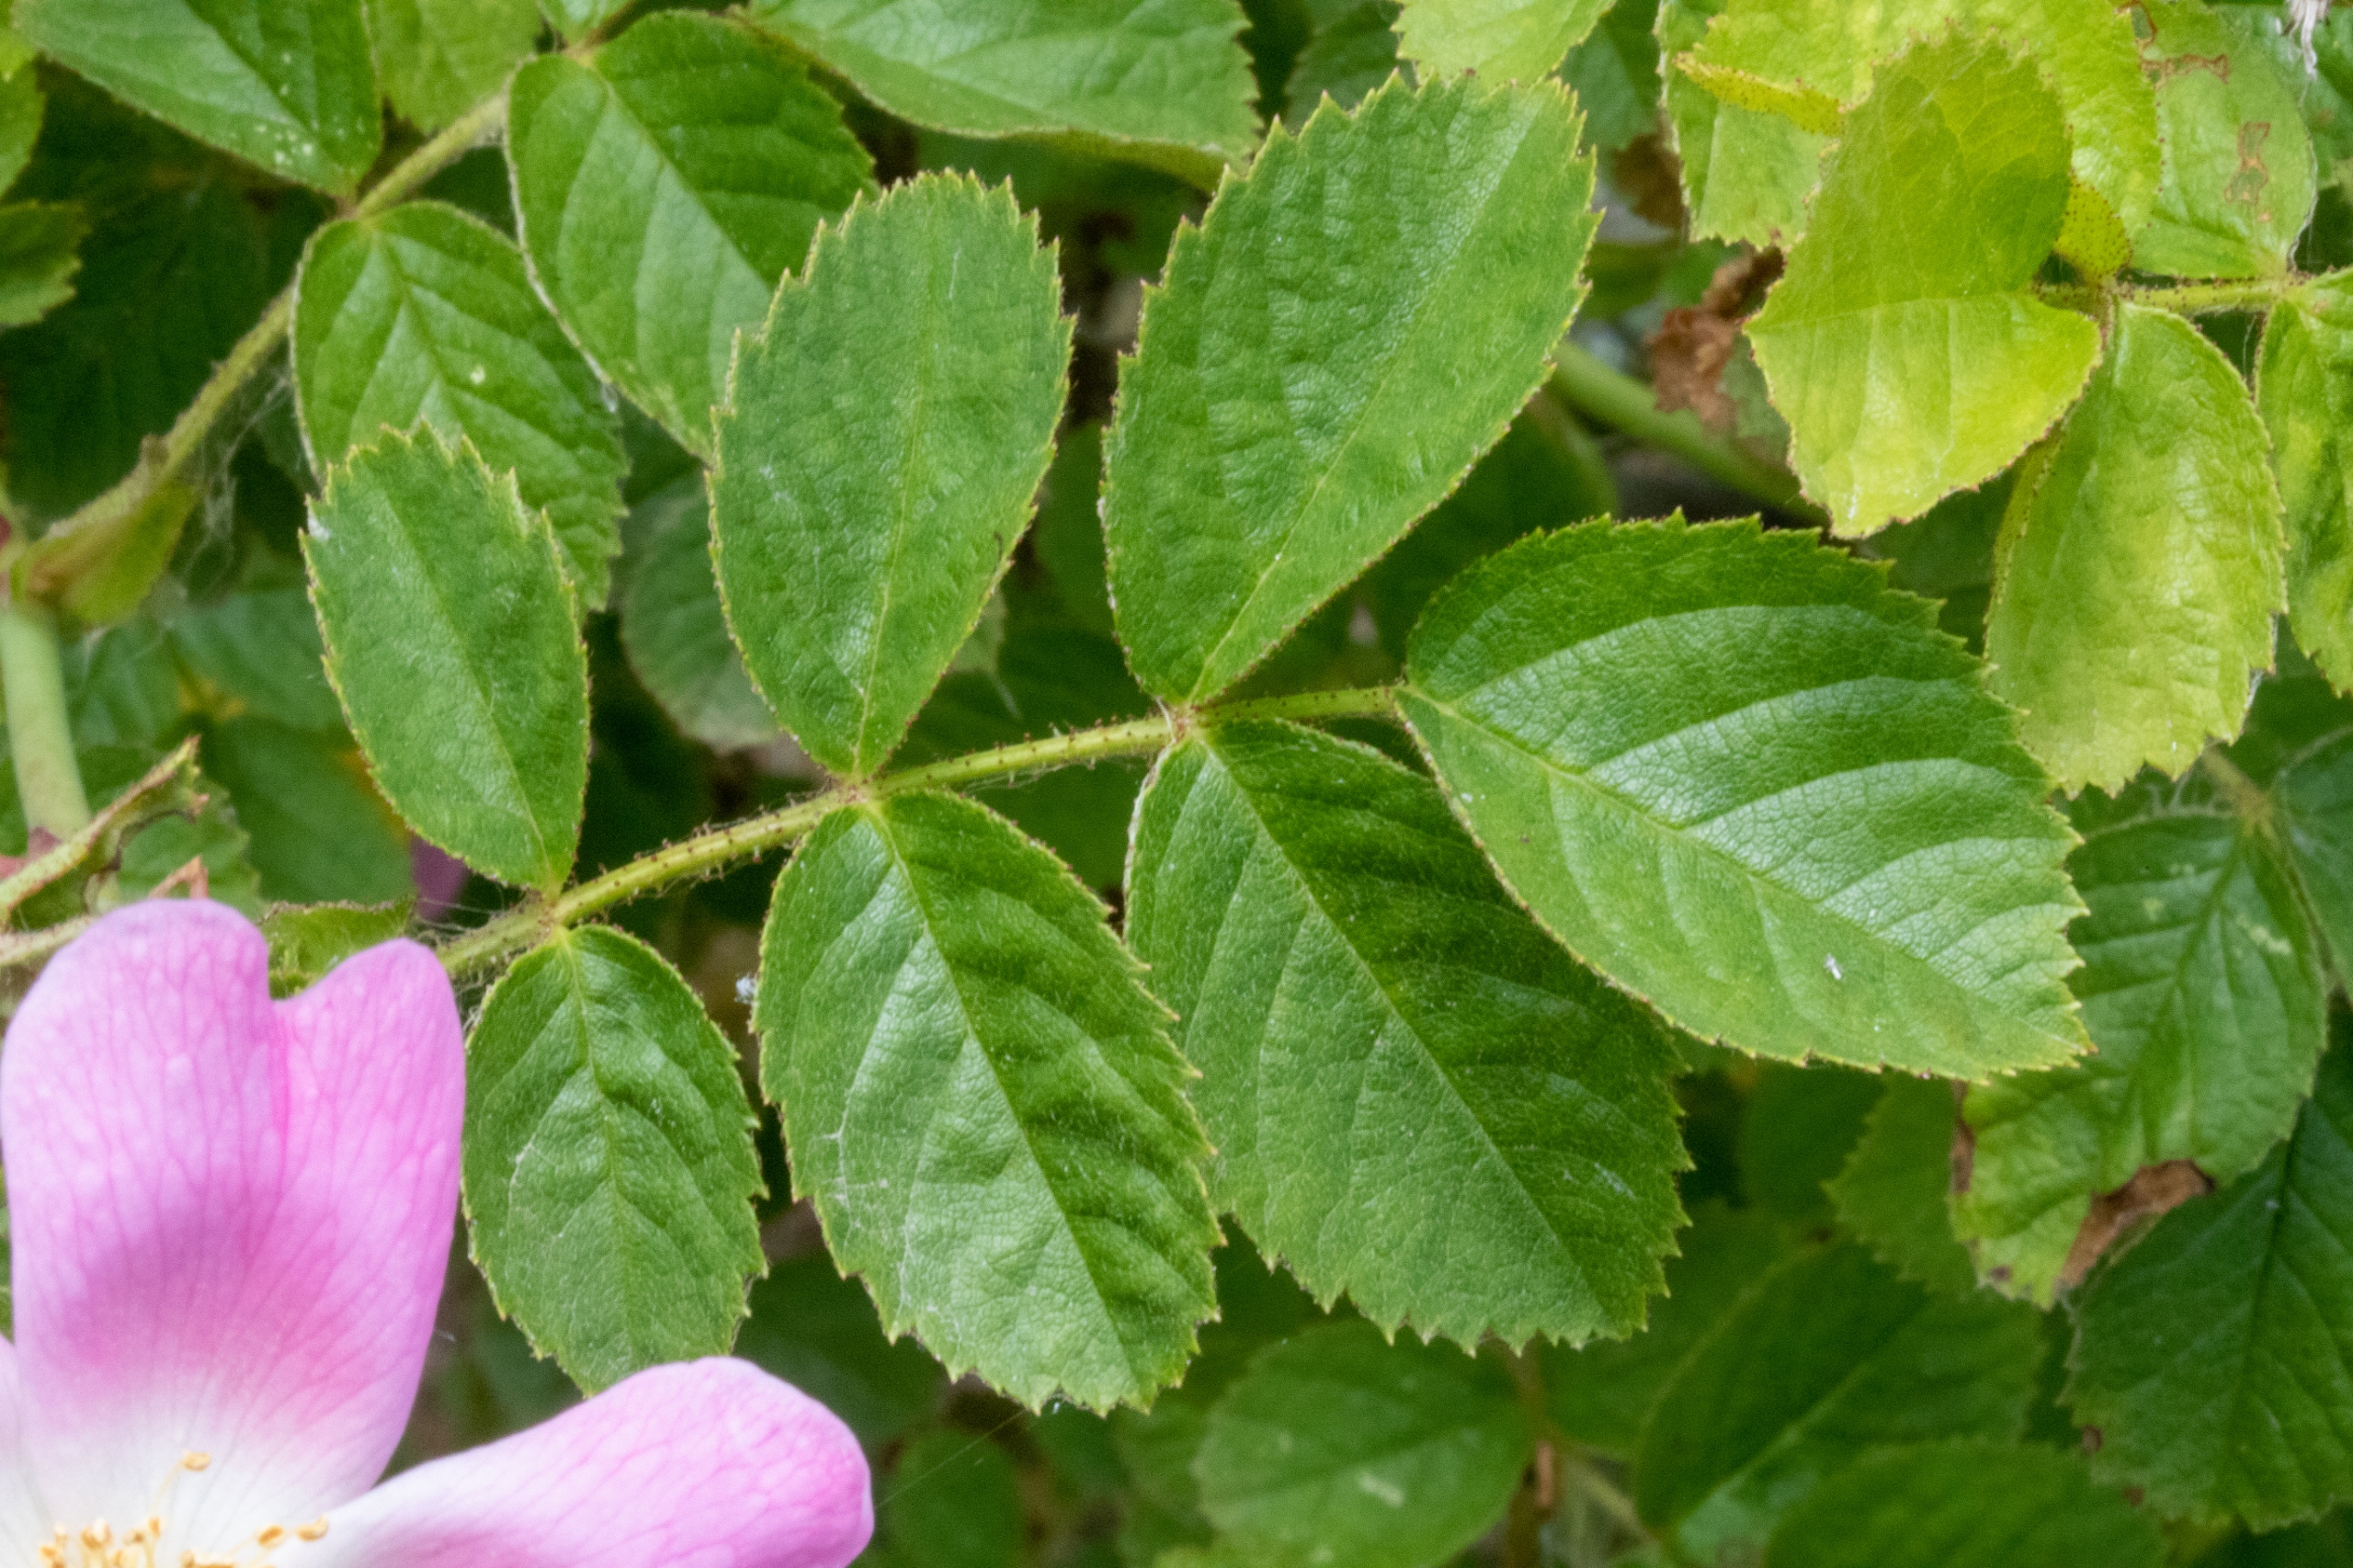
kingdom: Plantae
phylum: Tracheophyta
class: Magnoliopsida
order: Rosales
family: Rosaceae
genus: Rosa
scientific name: Rosa balsamica
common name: Rubladet rose
